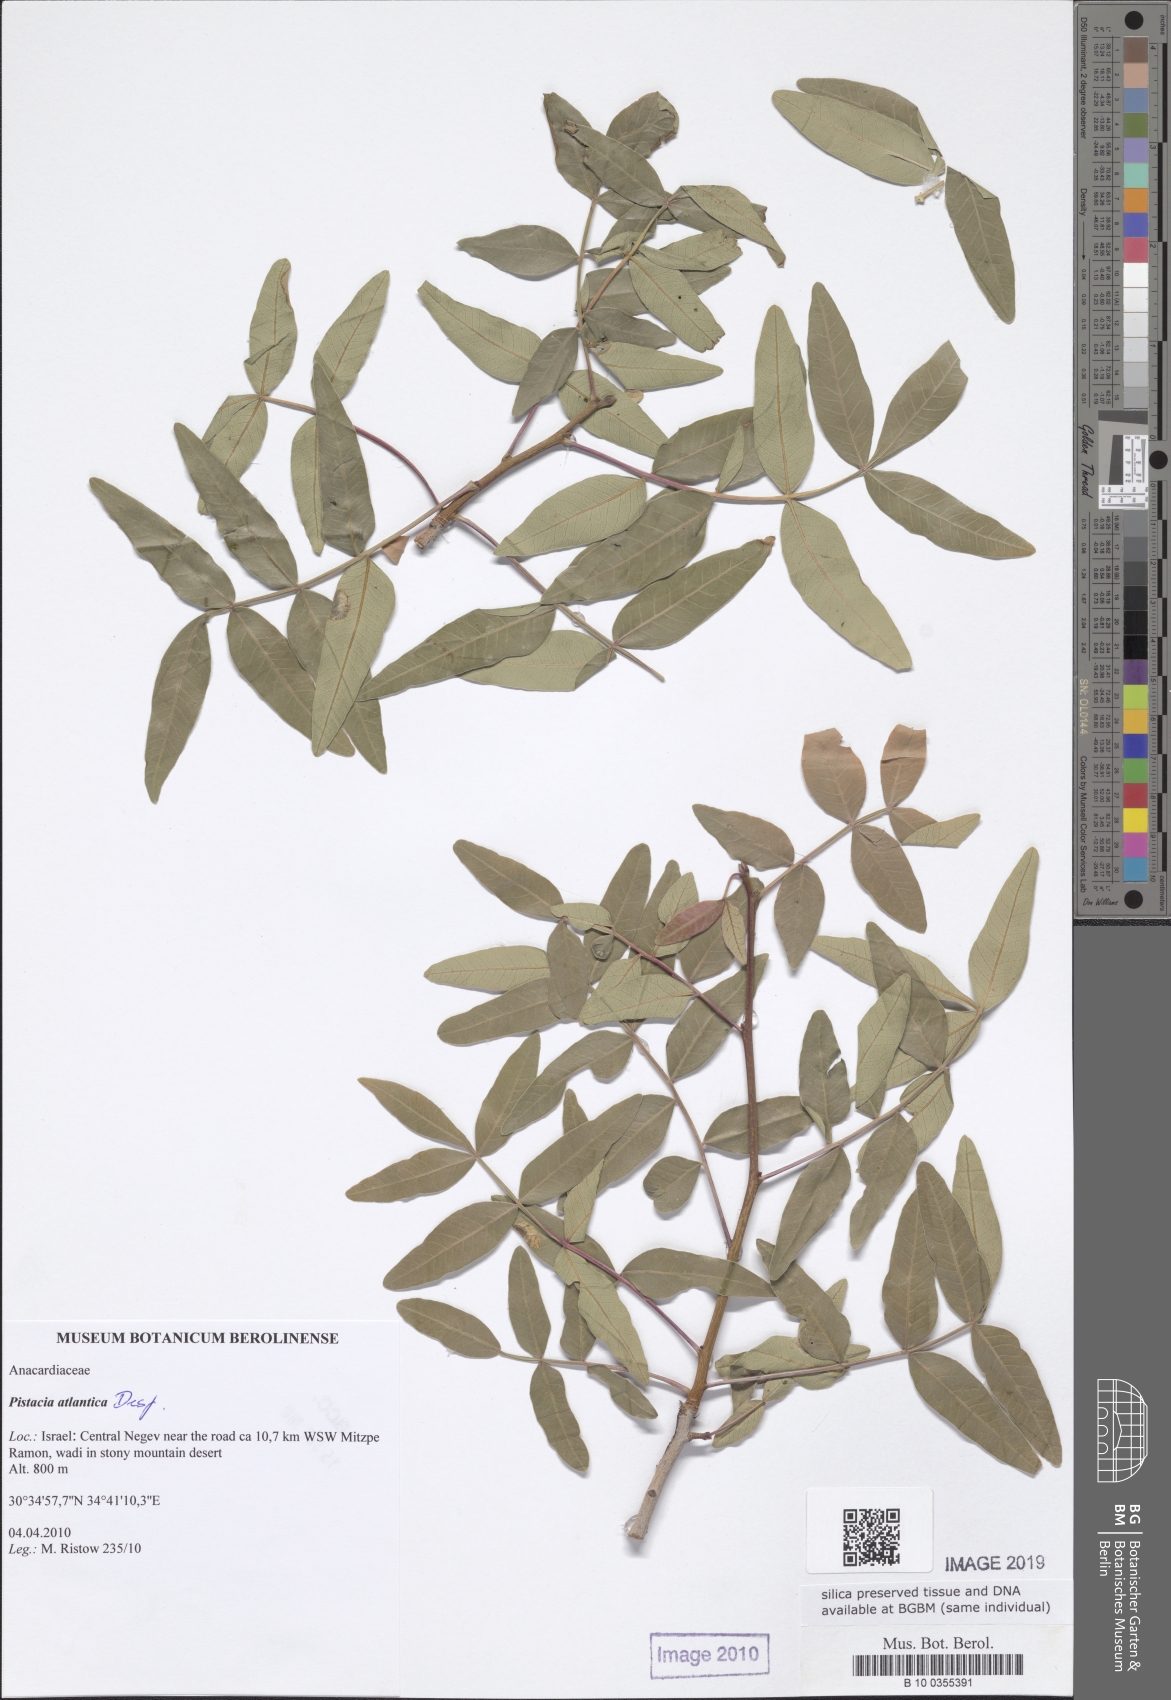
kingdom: Plantae
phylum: Tracheophyta
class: Magnoliopsida
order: Sapindales
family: Anacardiaceae
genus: Pistacia
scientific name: Pistacia atlantica
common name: Mt. atlas mastic tree
